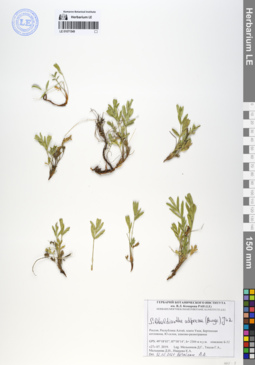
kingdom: Plantae
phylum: Tracheophyta
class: Magnoliopsida
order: Rosales
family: Rosaceae
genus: Sibbaldianthe
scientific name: Sibbaldianthe adpressa
